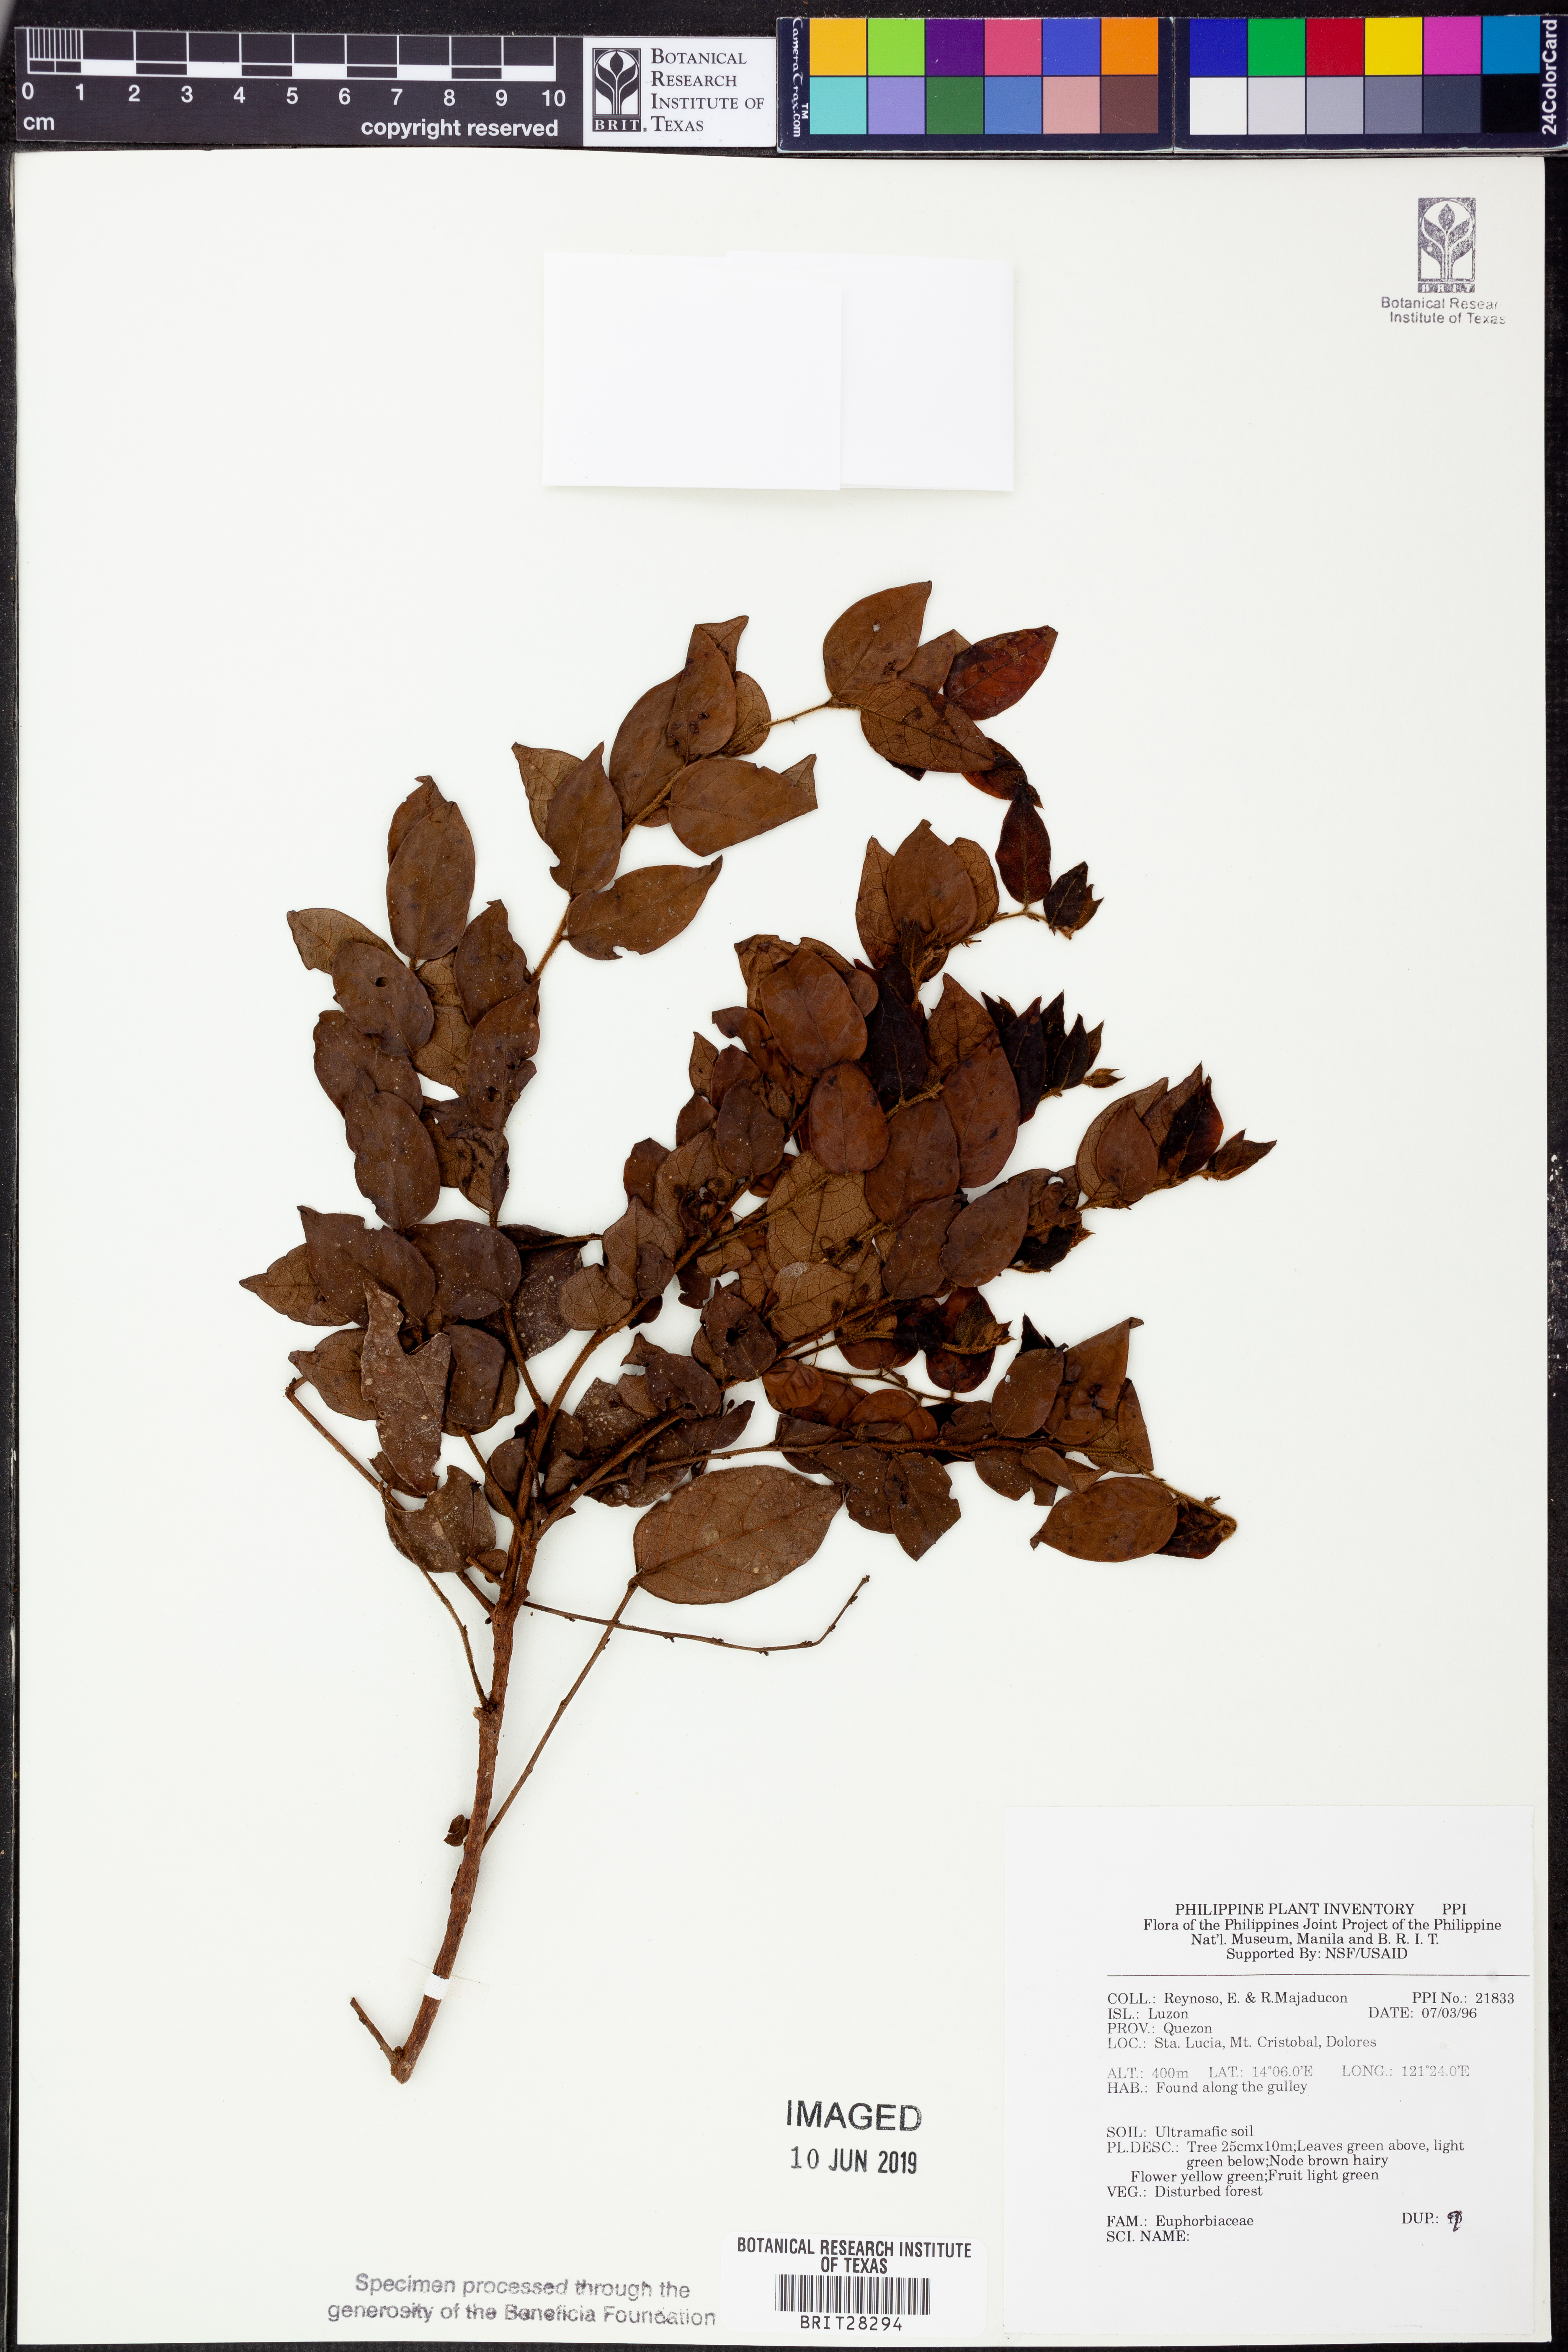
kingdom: Plantae
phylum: Tracheophyta
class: Magnoliopsida
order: Malpighiales
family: Euphorbiaceae
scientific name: Euphorbiaceae
